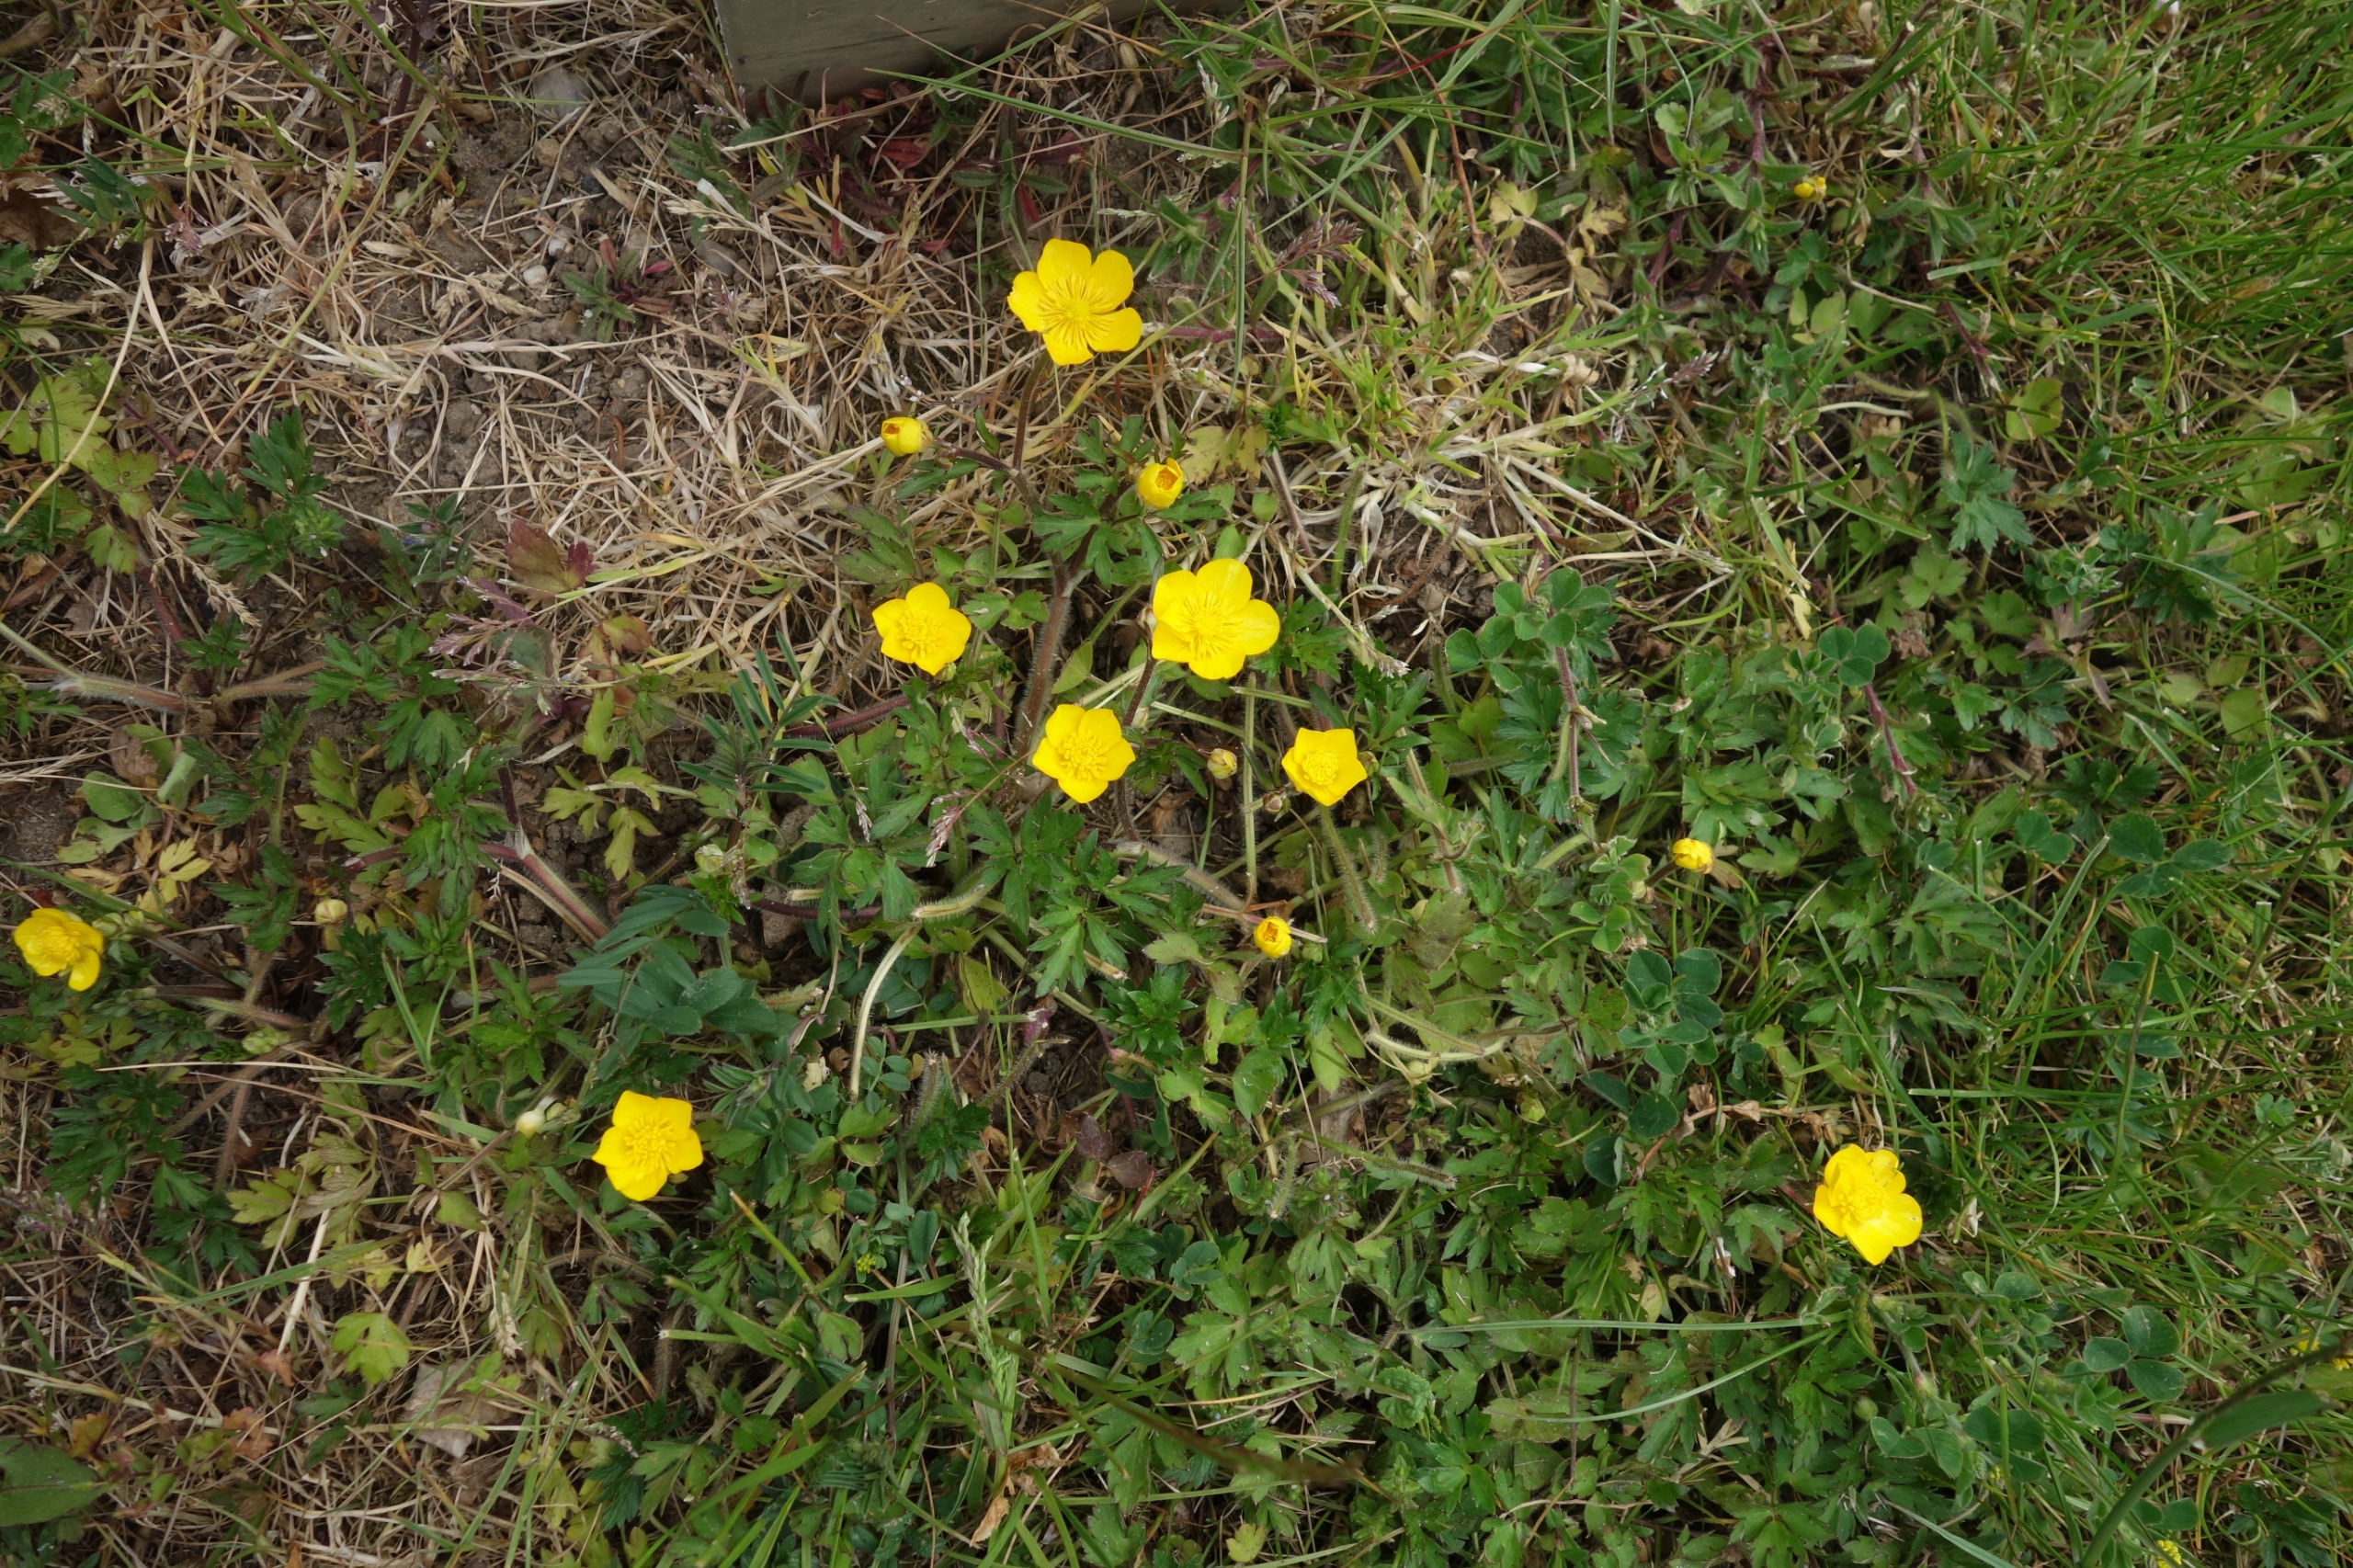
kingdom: Plantae
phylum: Tracheophyta
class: Magnoliopsida
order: Ranunculales
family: Ranunculaceae
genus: Ranunculus
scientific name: Ranunculus repens
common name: Lav ranunkel
